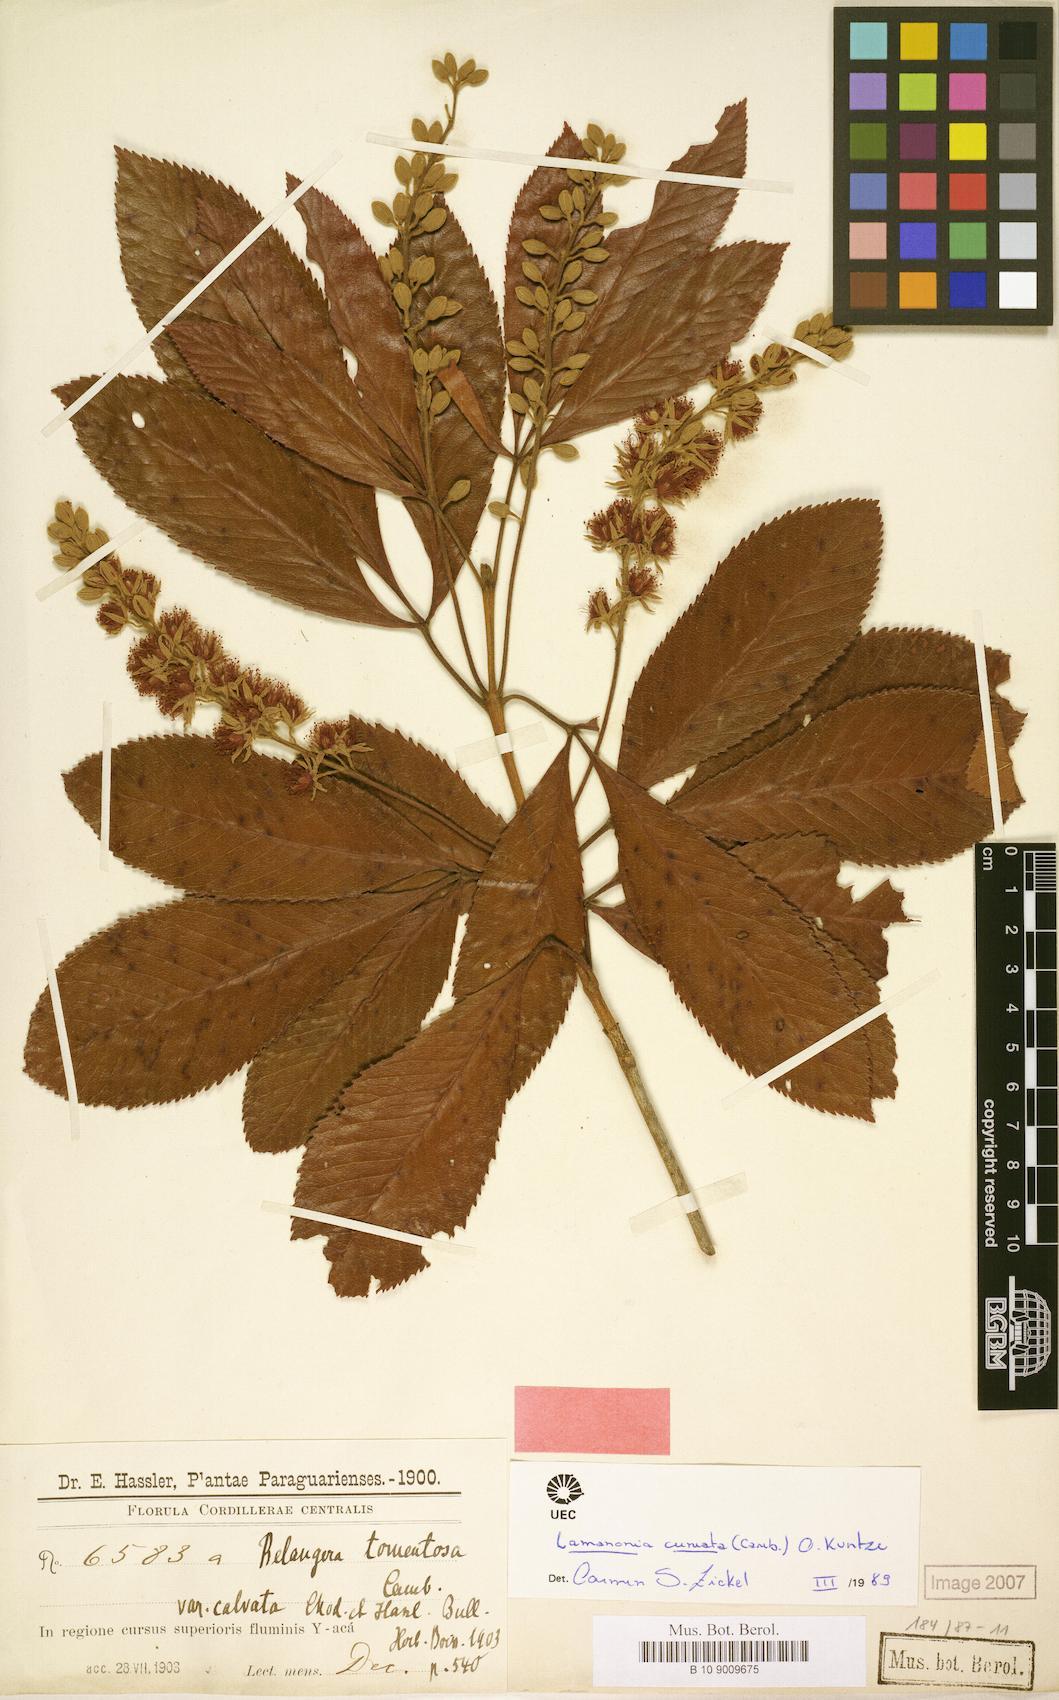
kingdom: Plantae
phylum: Tracheophyta
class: Magnoliopsida
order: Oxalidales
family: Cunoniaceae
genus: Lamanonia
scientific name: Lamanonia cuneata
